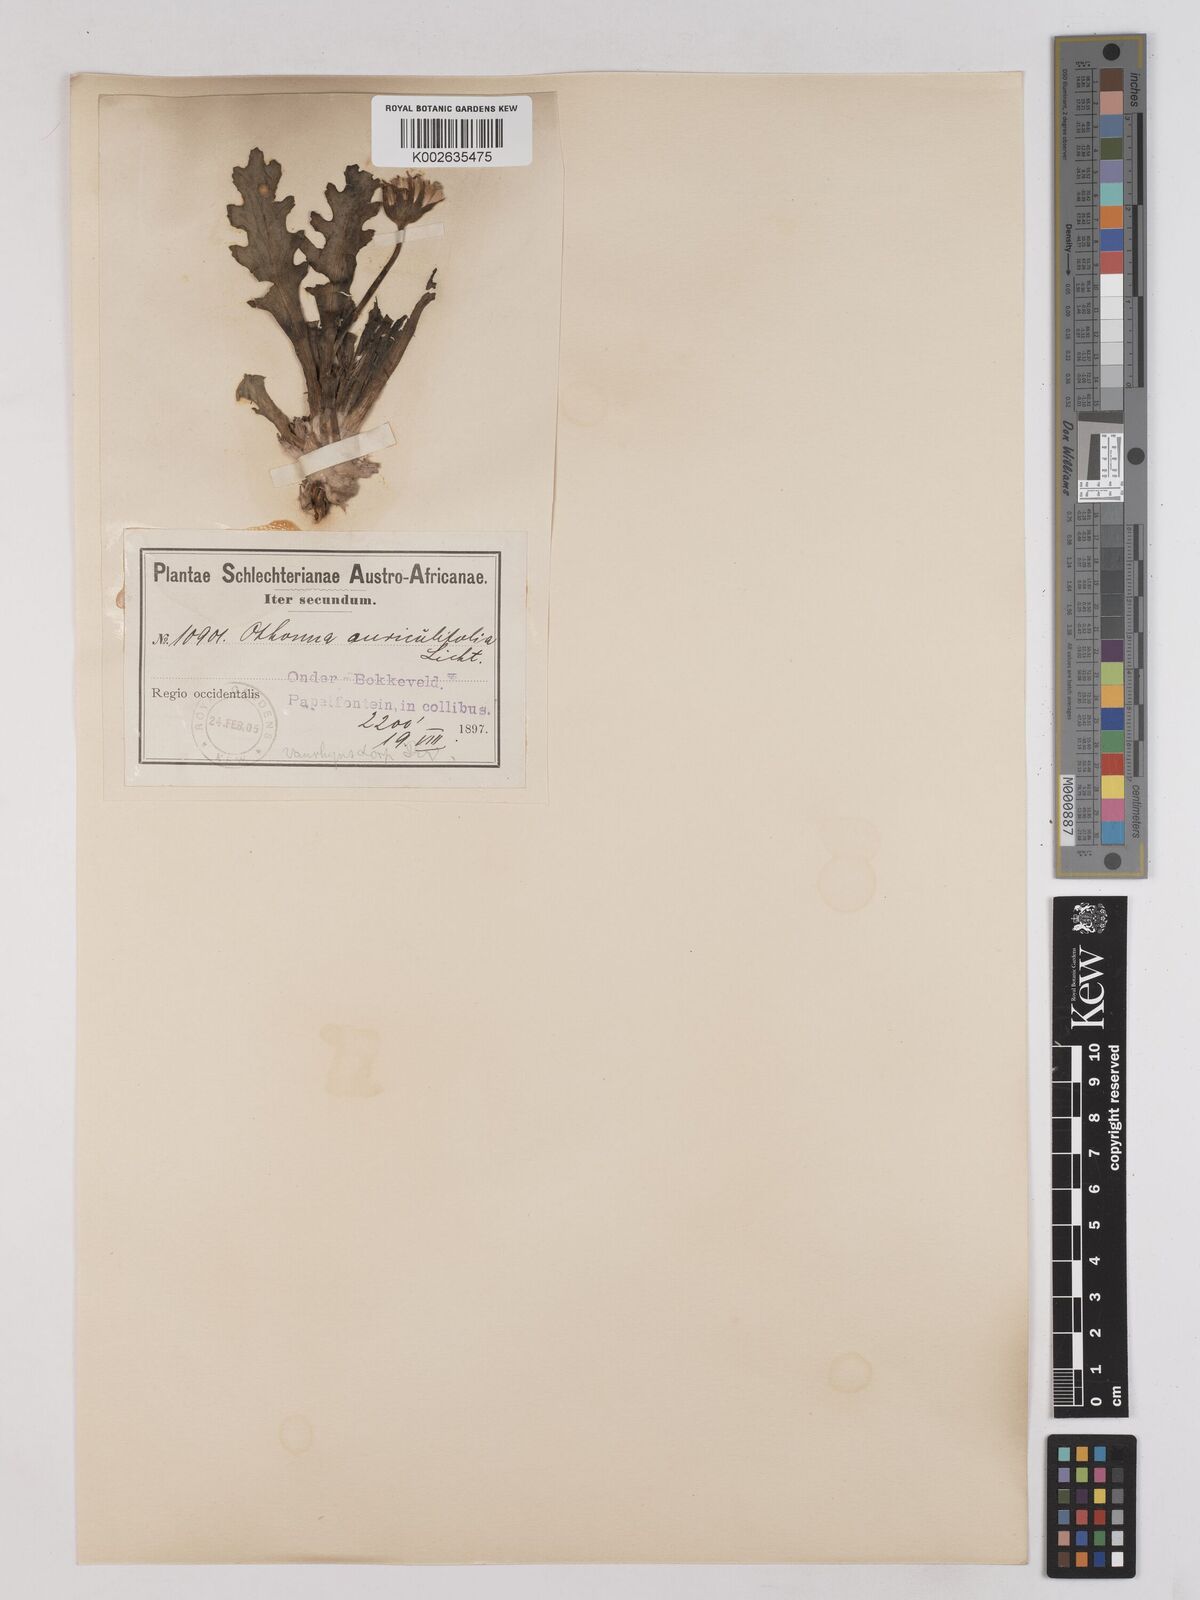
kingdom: Plantae
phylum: Tracheophyta
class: Magnoliopsida
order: Asterales
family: Asteraceae
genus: Othonna
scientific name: Othonna auriculifolia
